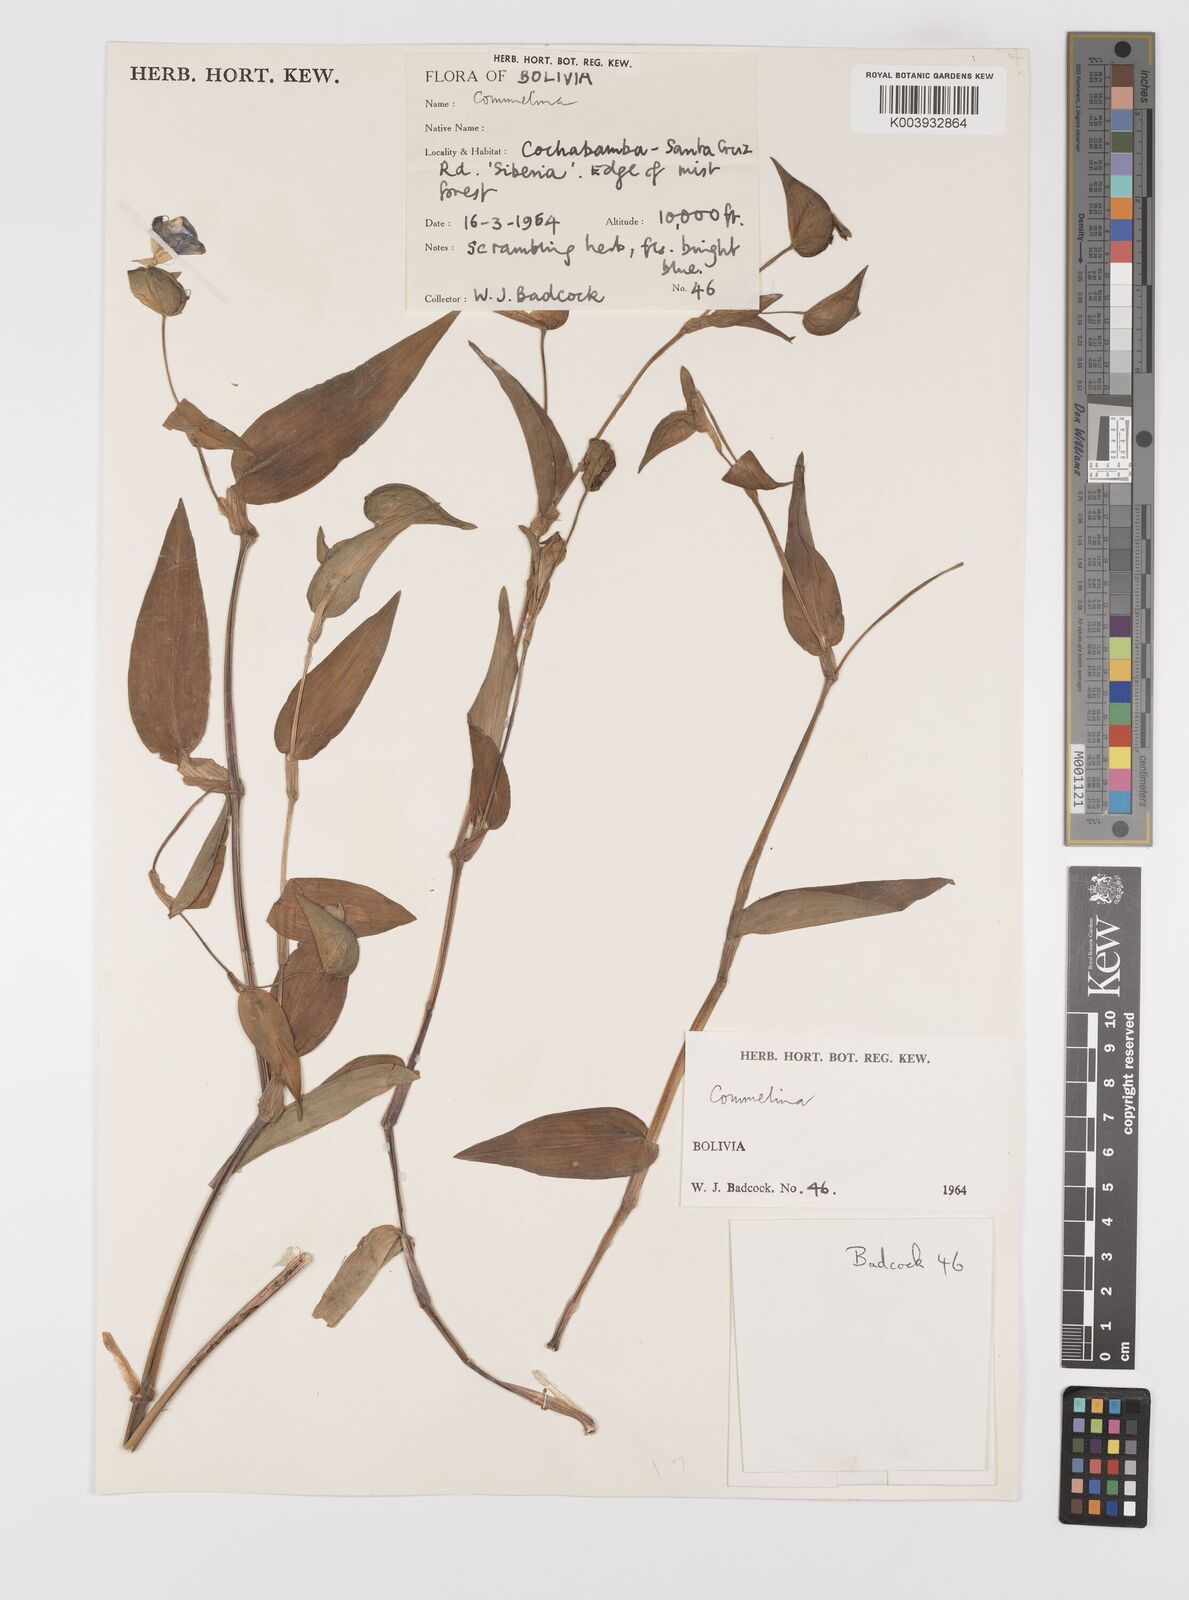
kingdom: Plantae
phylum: Tracheophyta
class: Liliopsida
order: Commelinales
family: Commelinaceae
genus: Commelina
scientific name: Commelina
